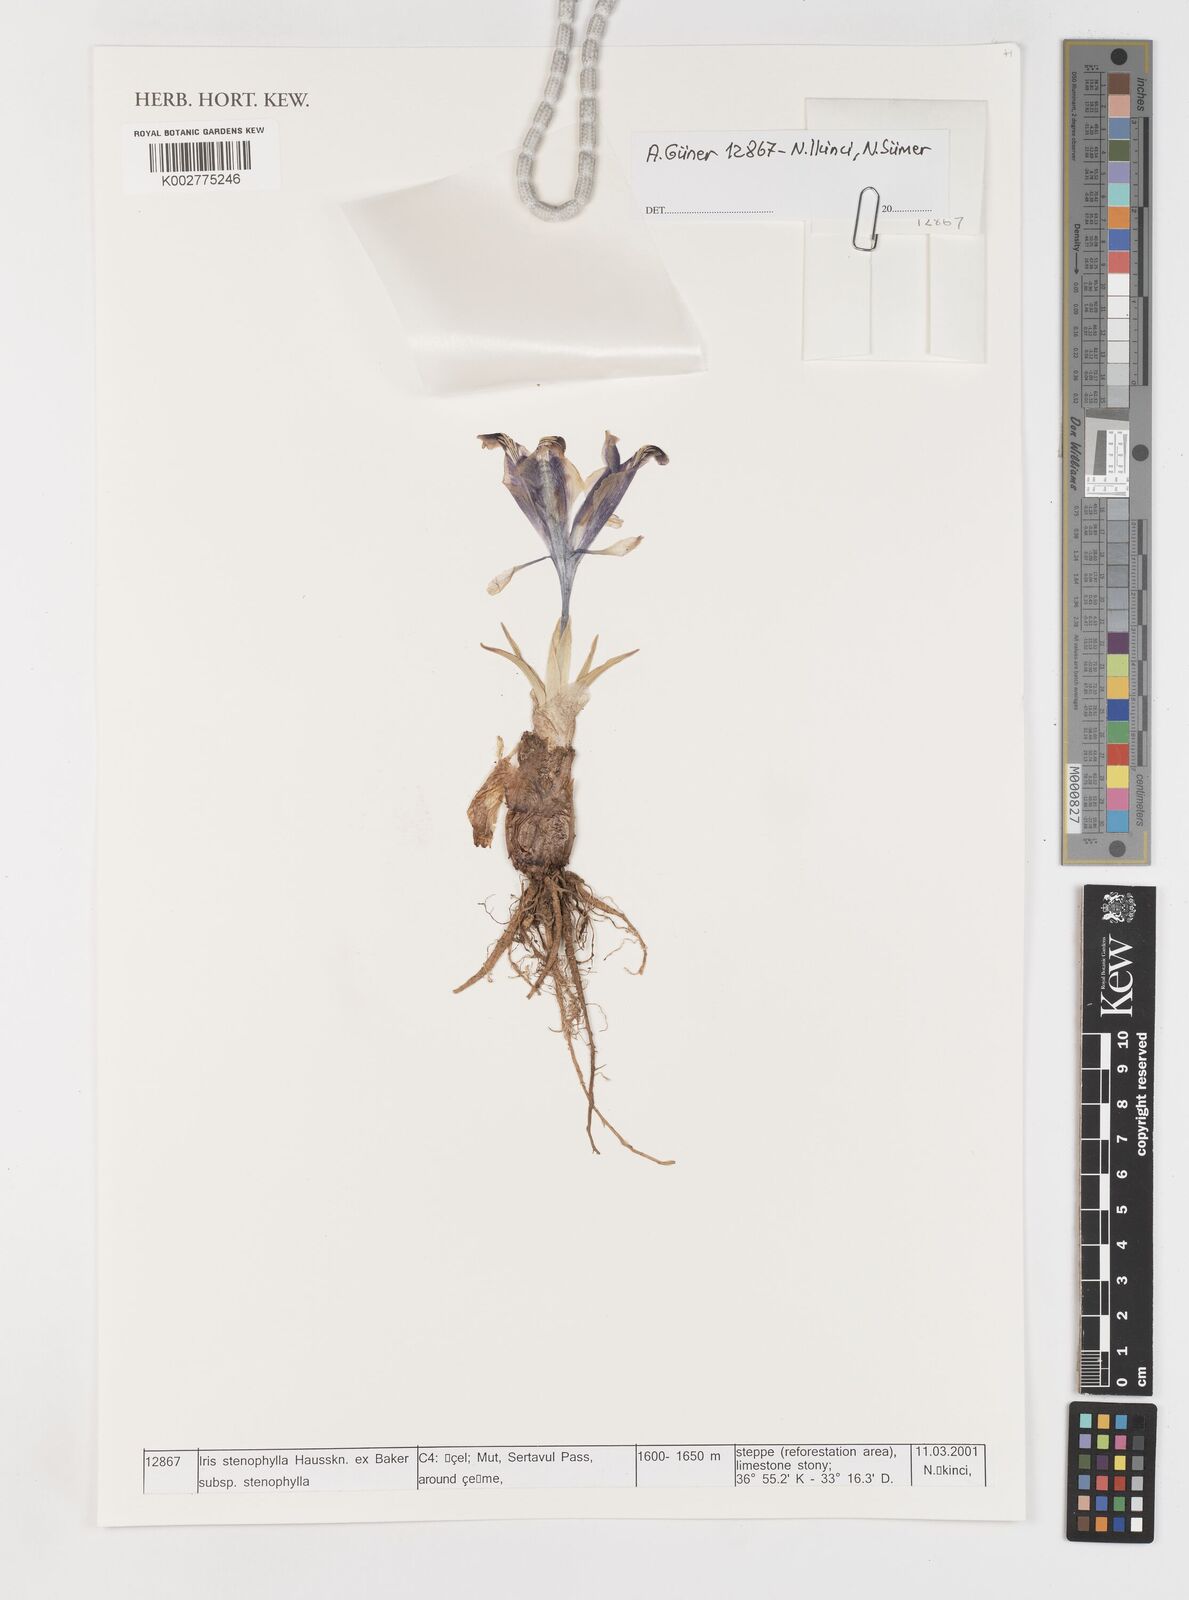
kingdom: Plantae
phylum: Tracheophyta
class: Liliopsida
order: Asparagales
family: Iridaceae
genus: Iris
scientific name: Iris stenophylla
